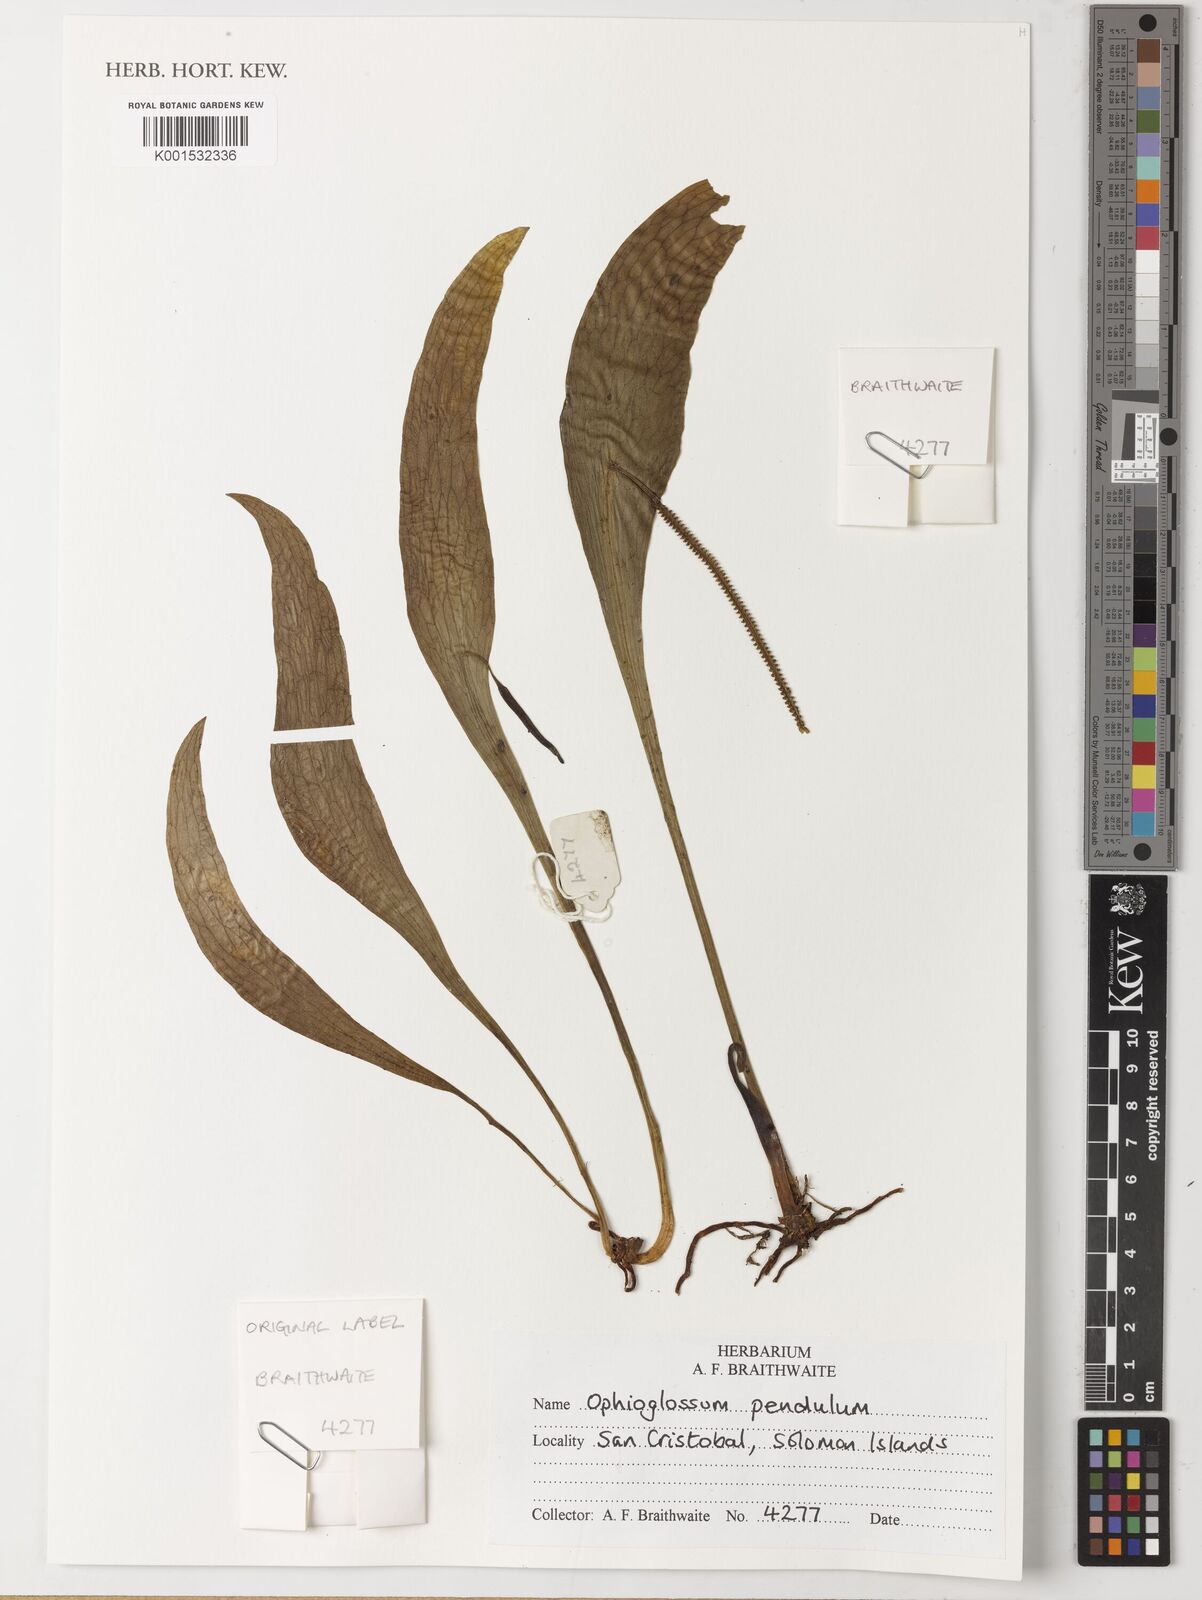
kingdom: Plantae
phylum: Tracheophyta
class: Polypodiopsida
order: Ophioglossales
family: Ophioglossaceae
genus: Ophioderma
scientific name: Ophioderma pendulum
